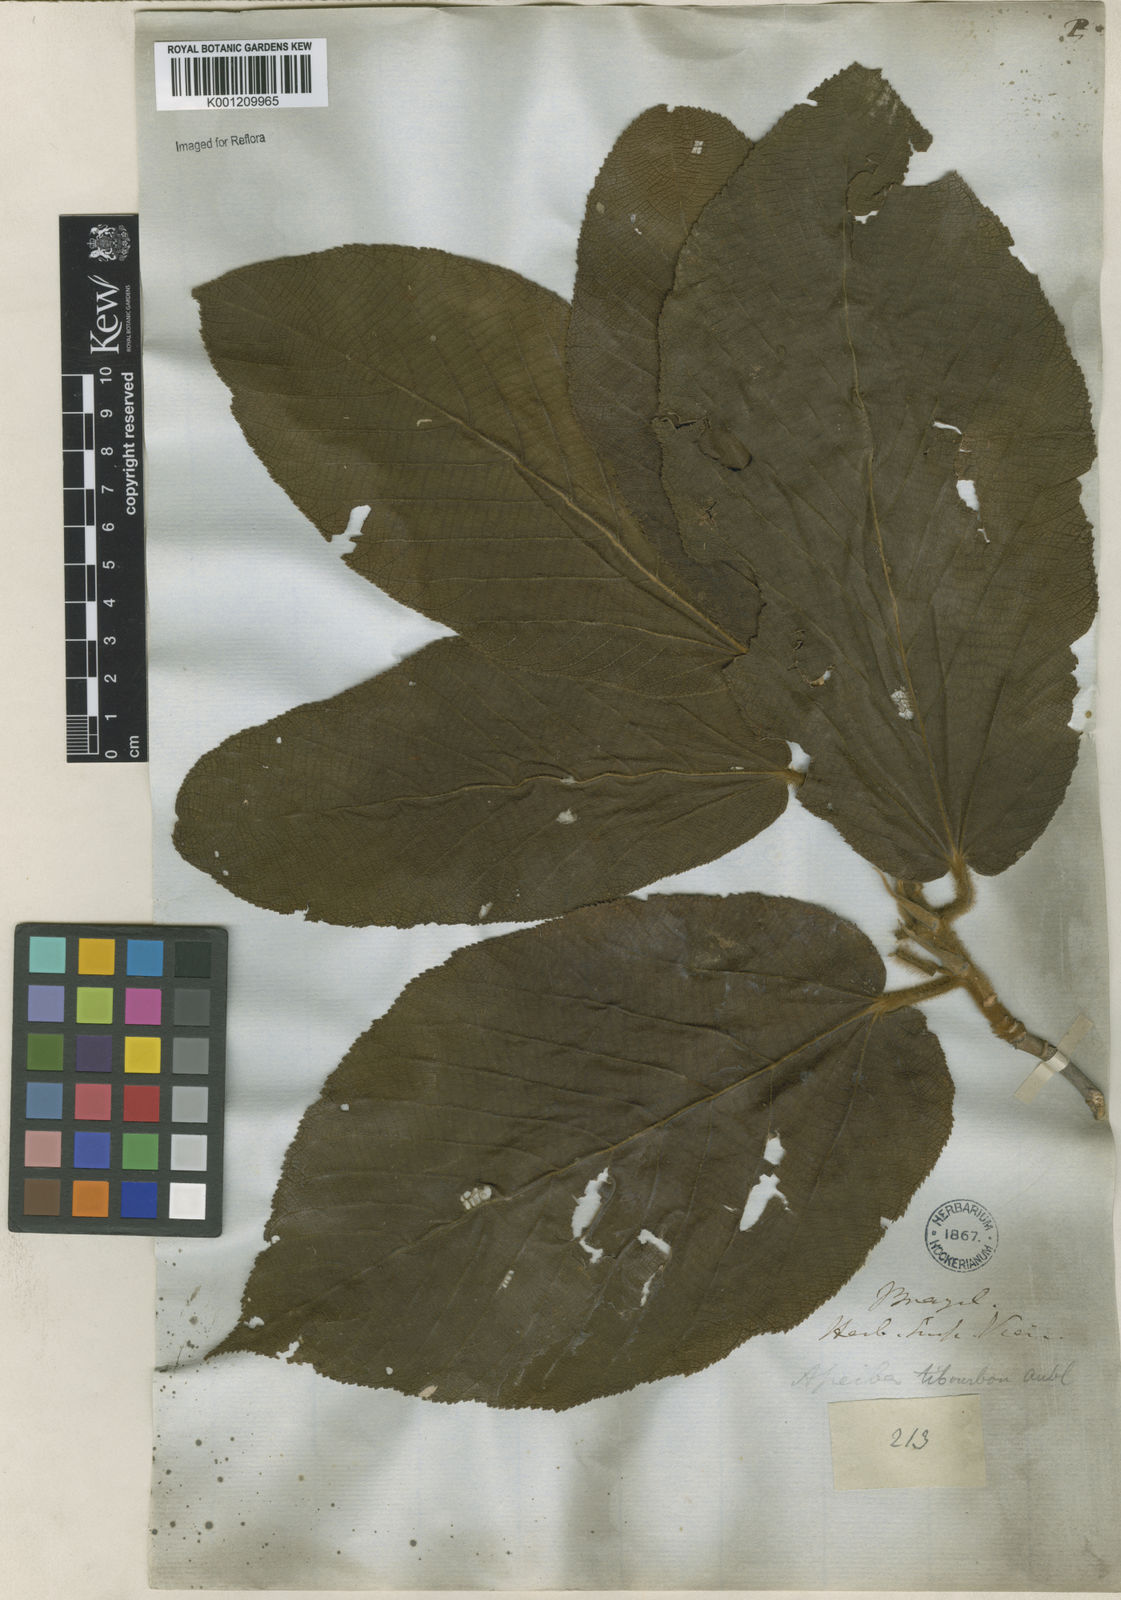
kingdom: Plantae
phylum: Tracheophyta
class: Magnoliopsida
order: Malvales
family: Malvaceae
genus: Apeiba
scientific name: Apeiba tibourbou
